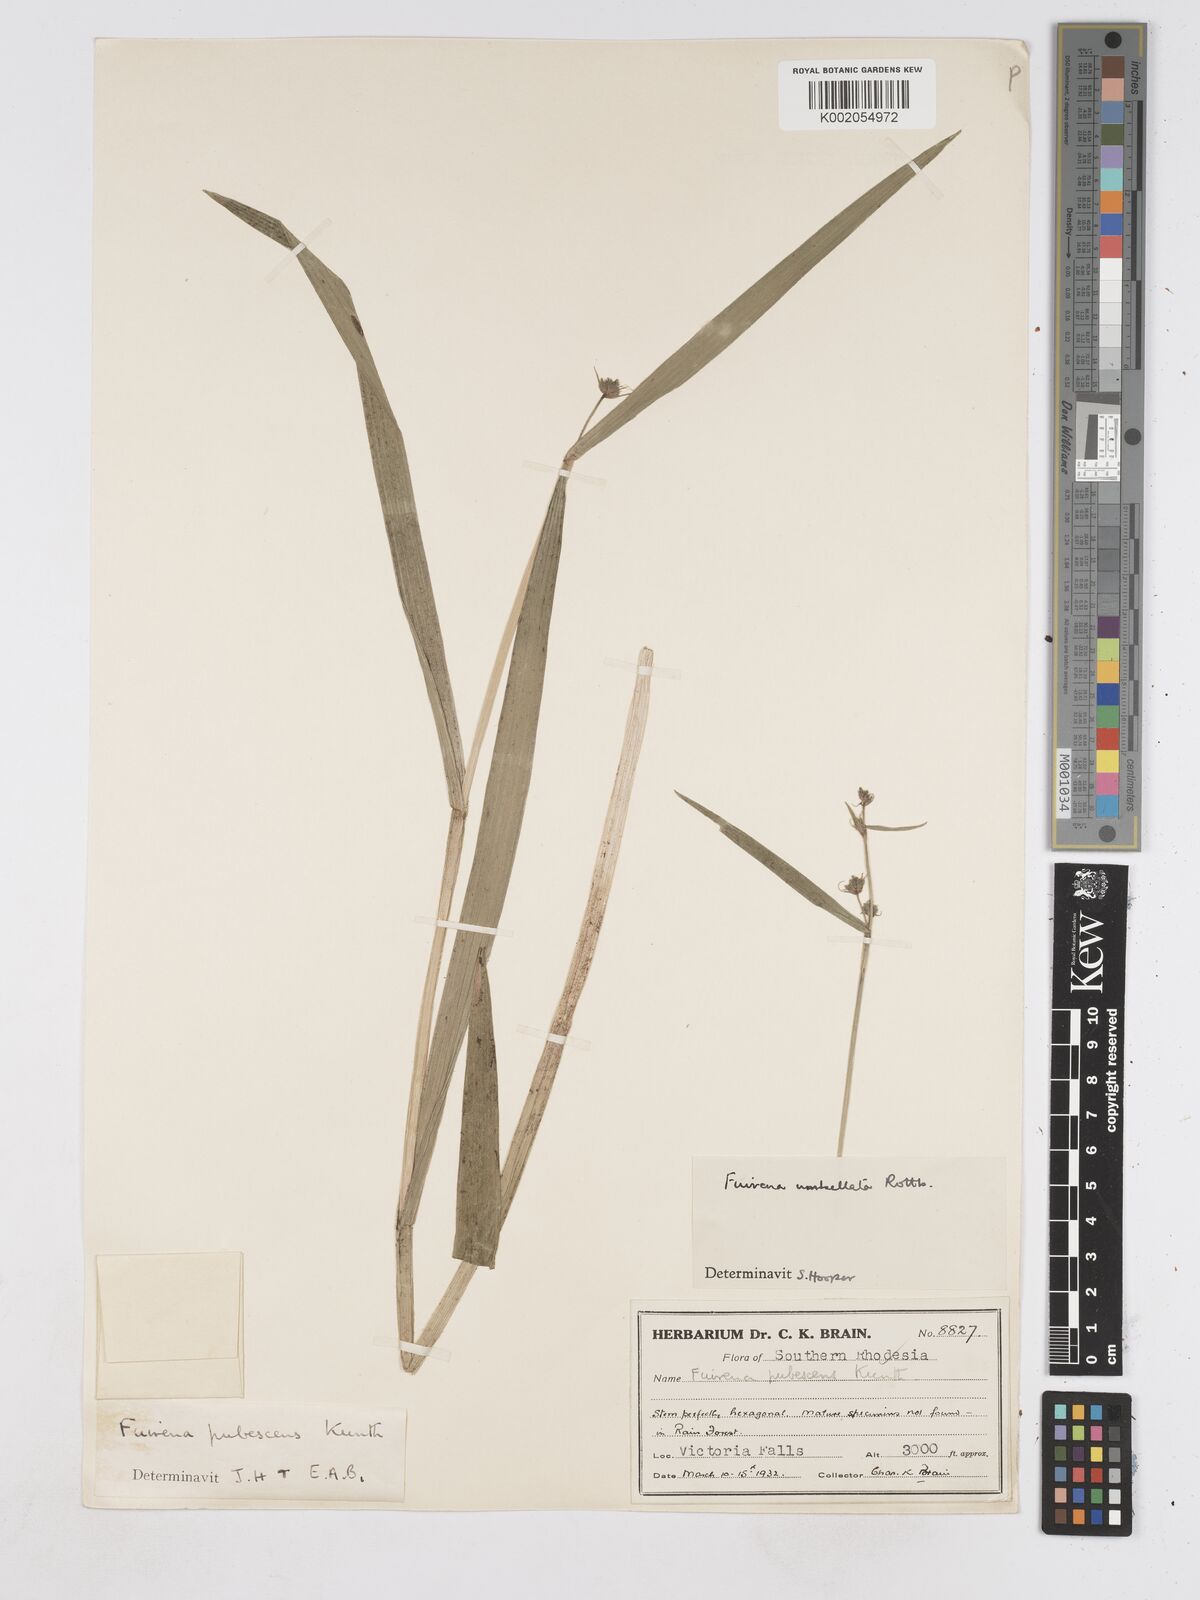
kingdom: Plantae
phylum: Tracheophyta
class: Liliopsida
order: Poales
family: Cyperaceae
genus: Fuirena
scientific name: Fuirena umbellata
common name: Yefen
